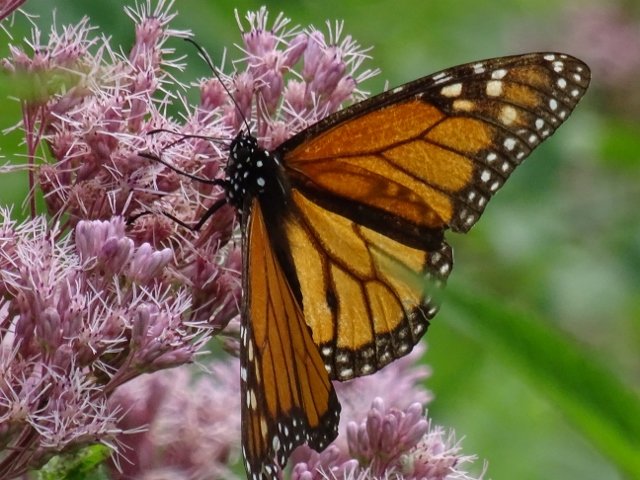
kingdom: Animalia
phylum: Arthropoda
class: Insecta
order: Lepidoptera
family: Nymphalidae
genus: Danaus
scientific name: Danaus plexippus
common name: Monarch
